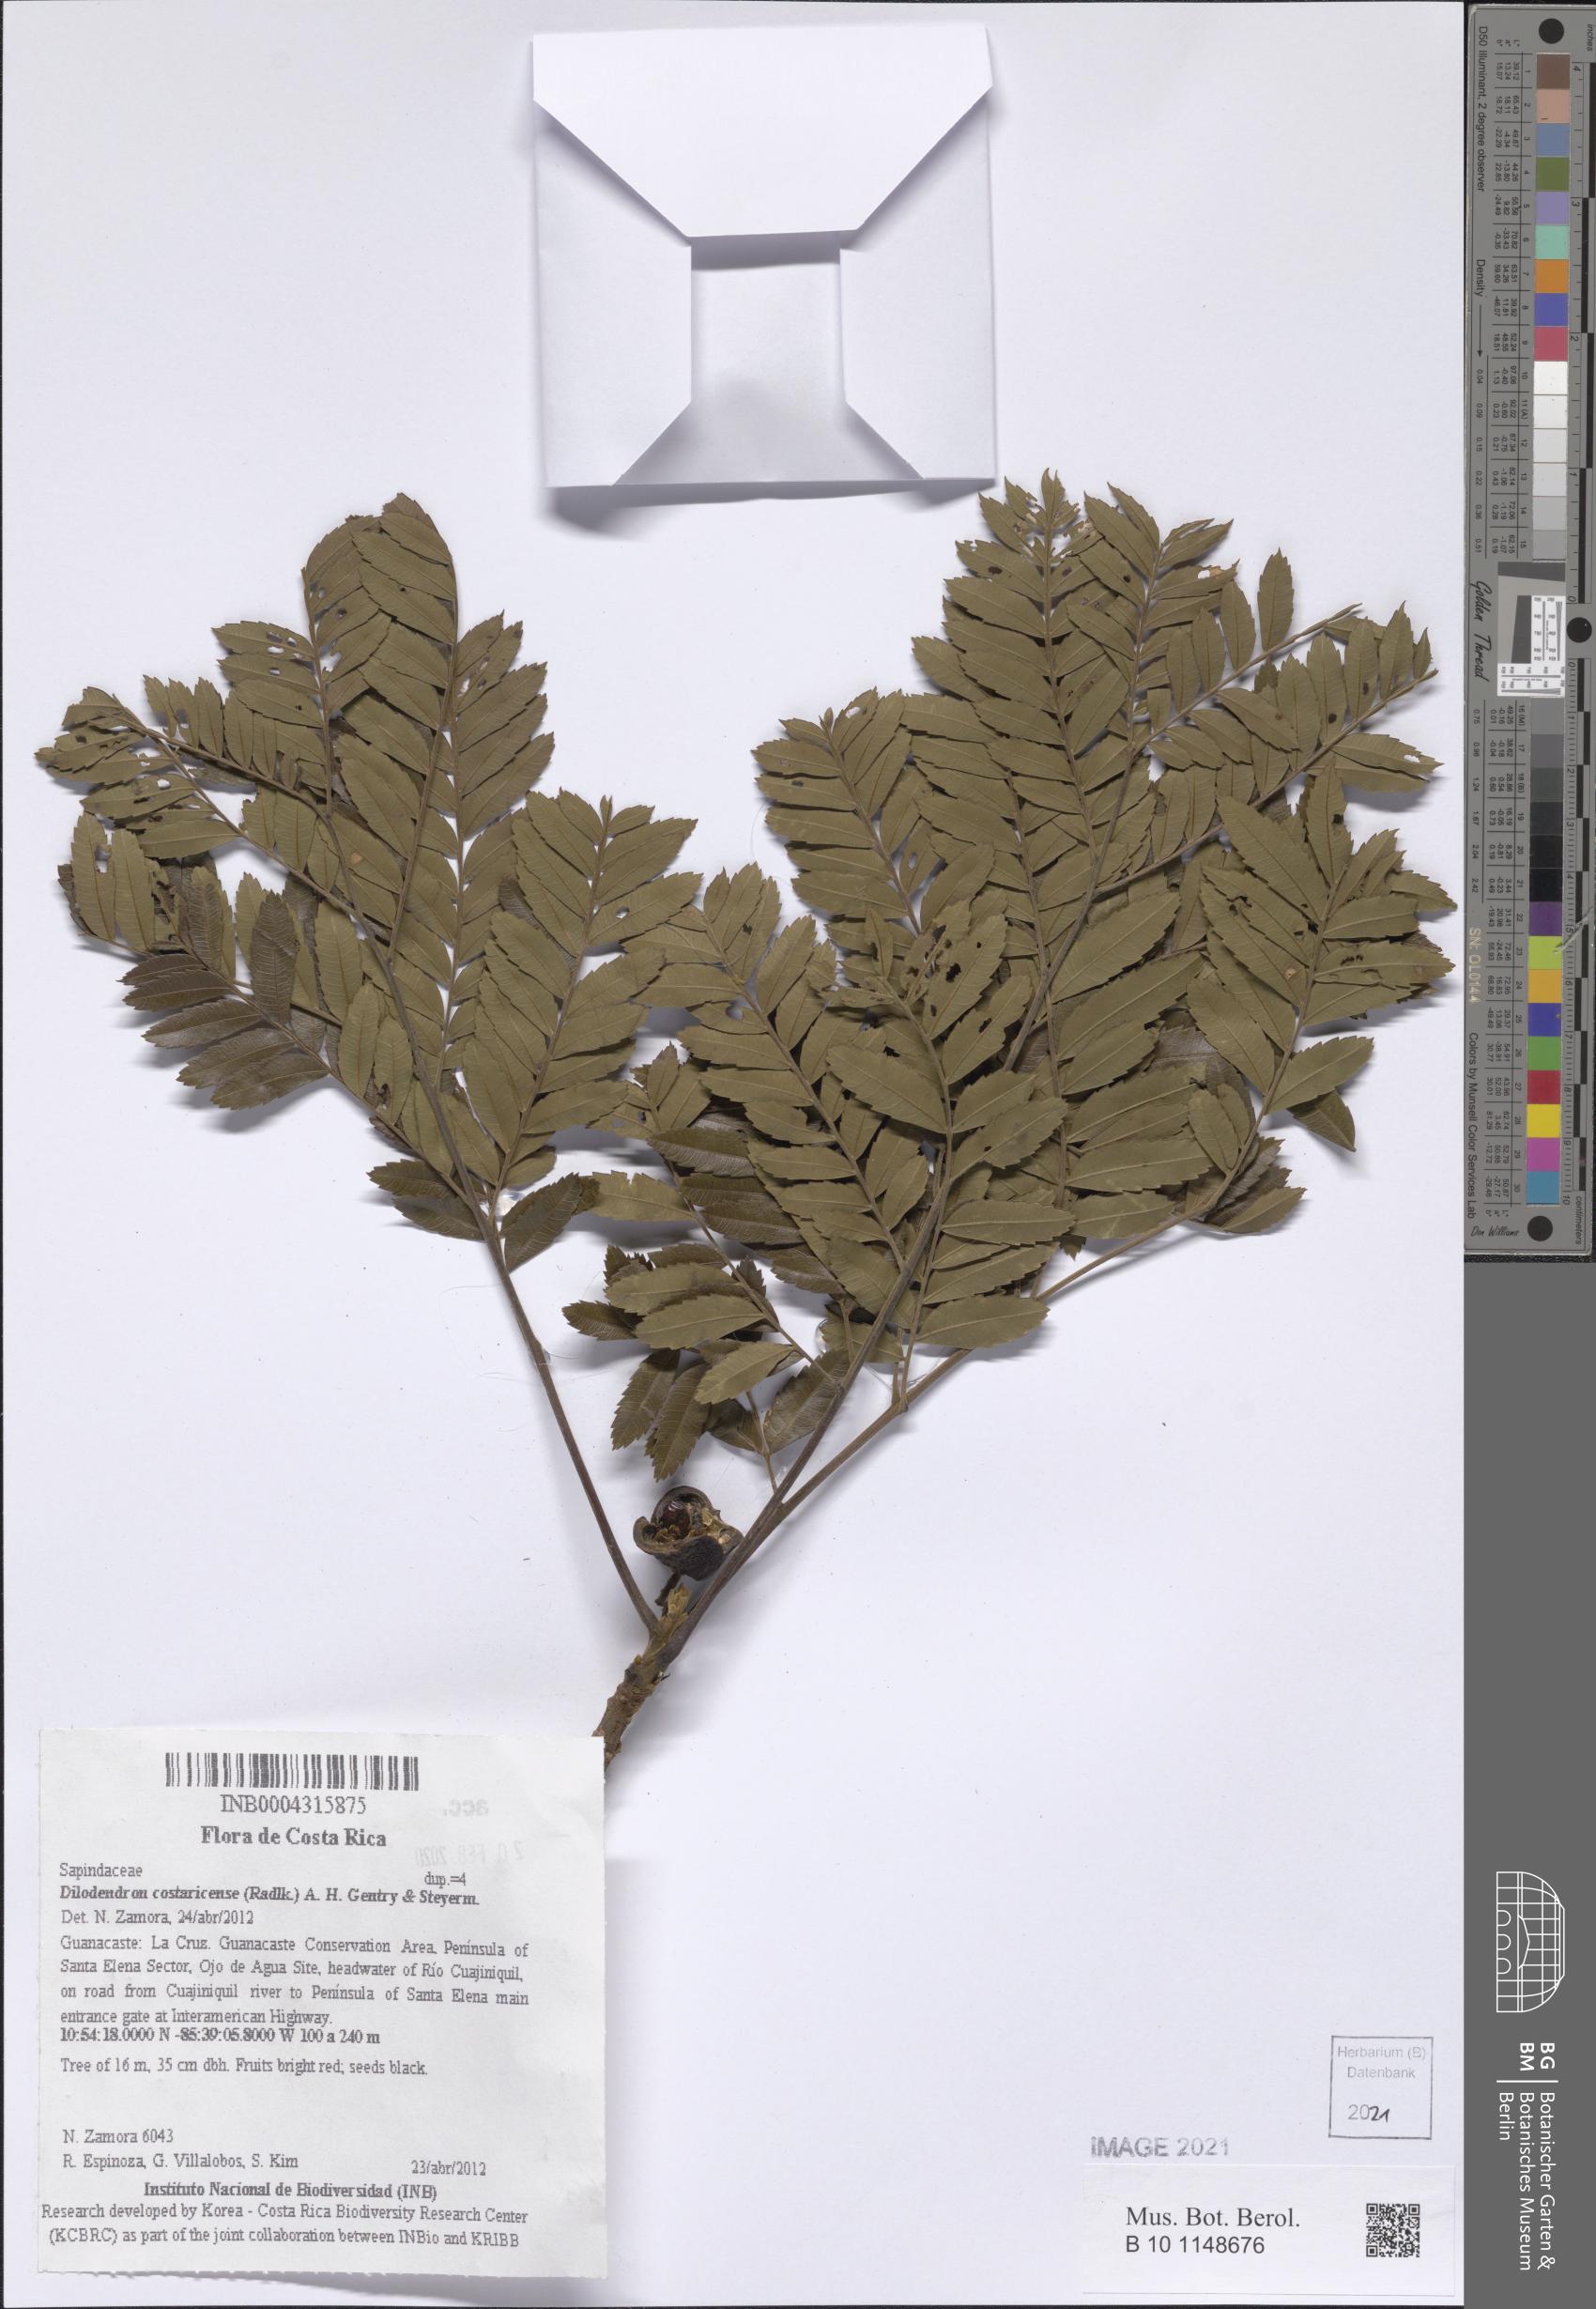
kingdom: Plantae
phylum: Tracheophyta
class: Magnoliopsida
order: Sapindales
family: Sapindaceae
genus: Dilodendron
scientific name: Dilodendron costaricense
